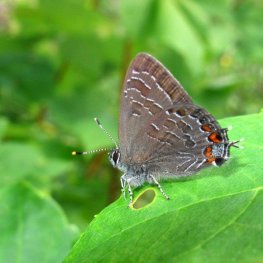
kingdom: Animalia
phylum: Arthropoda
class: Insecta
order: Lepidoptera
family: Lycaenidae
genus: Satyrium
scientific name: Satyrium liparops
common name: Striped Hairstreak
